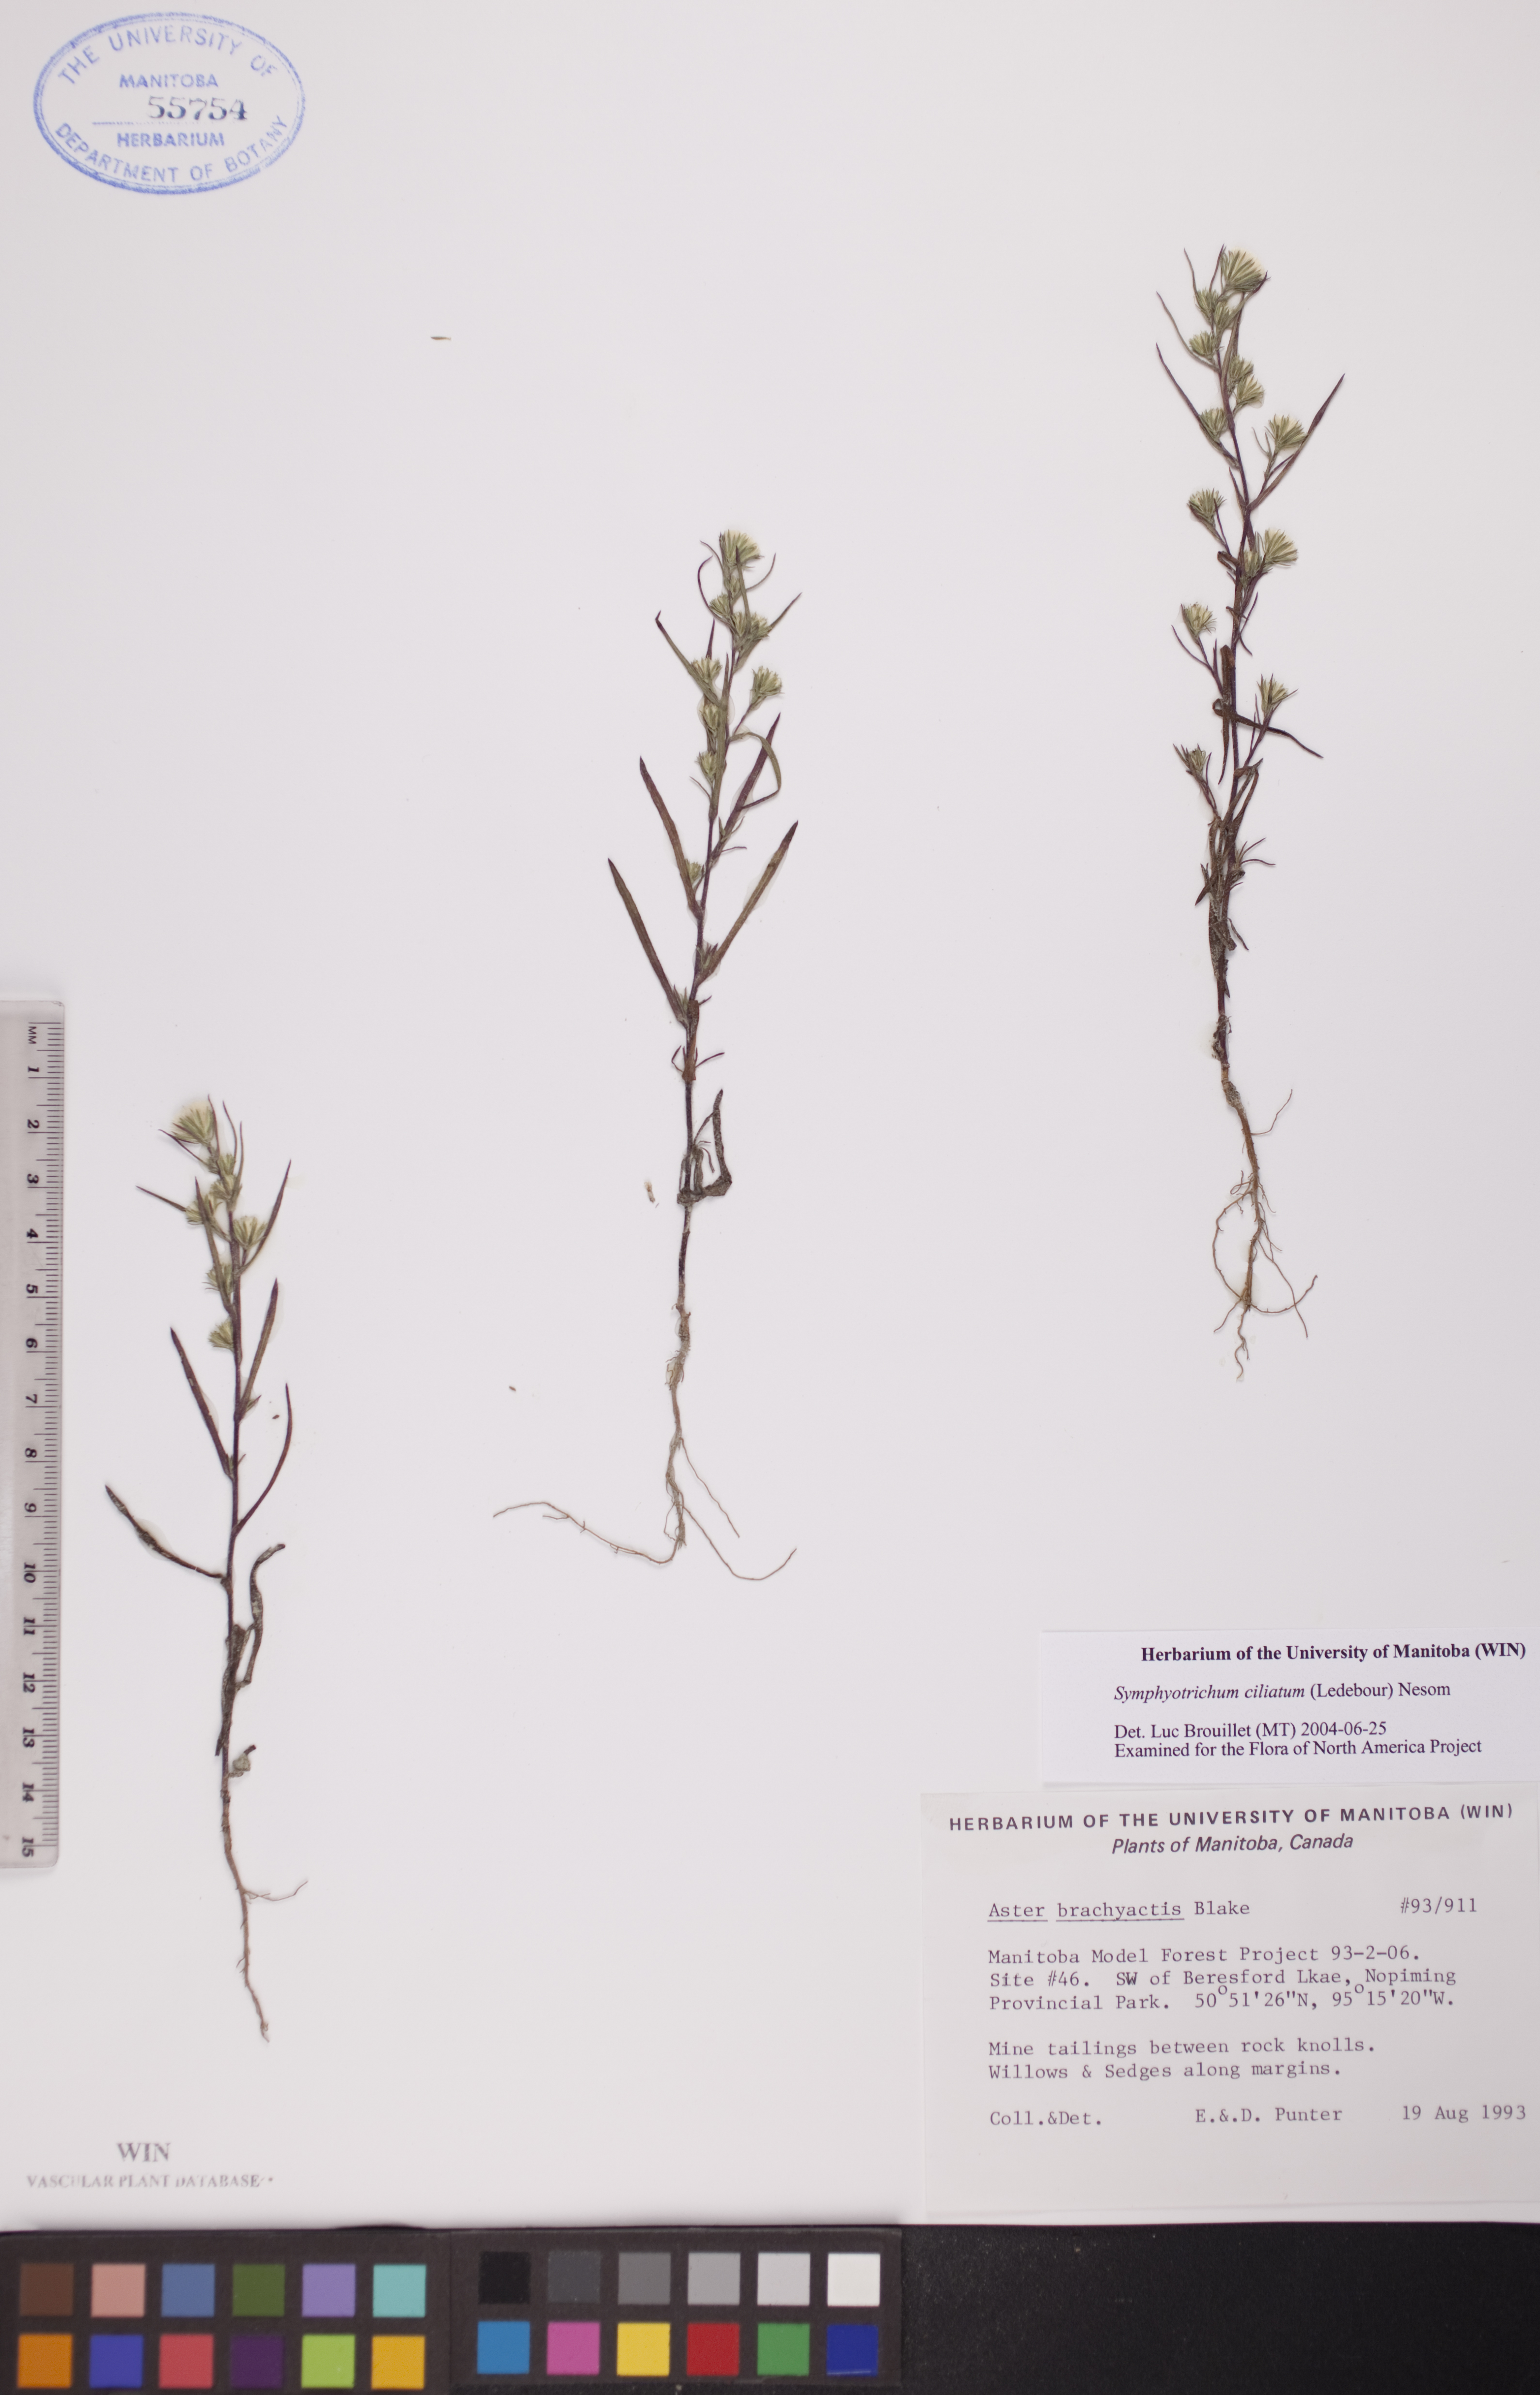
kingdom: Plantae
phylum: Tracheophyta
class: Magnoliopsida
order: Asterales
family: Asteraceae
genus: Symphyotrichum
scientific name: Symphyotrichum ciliatum
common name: Rayless annual aster
